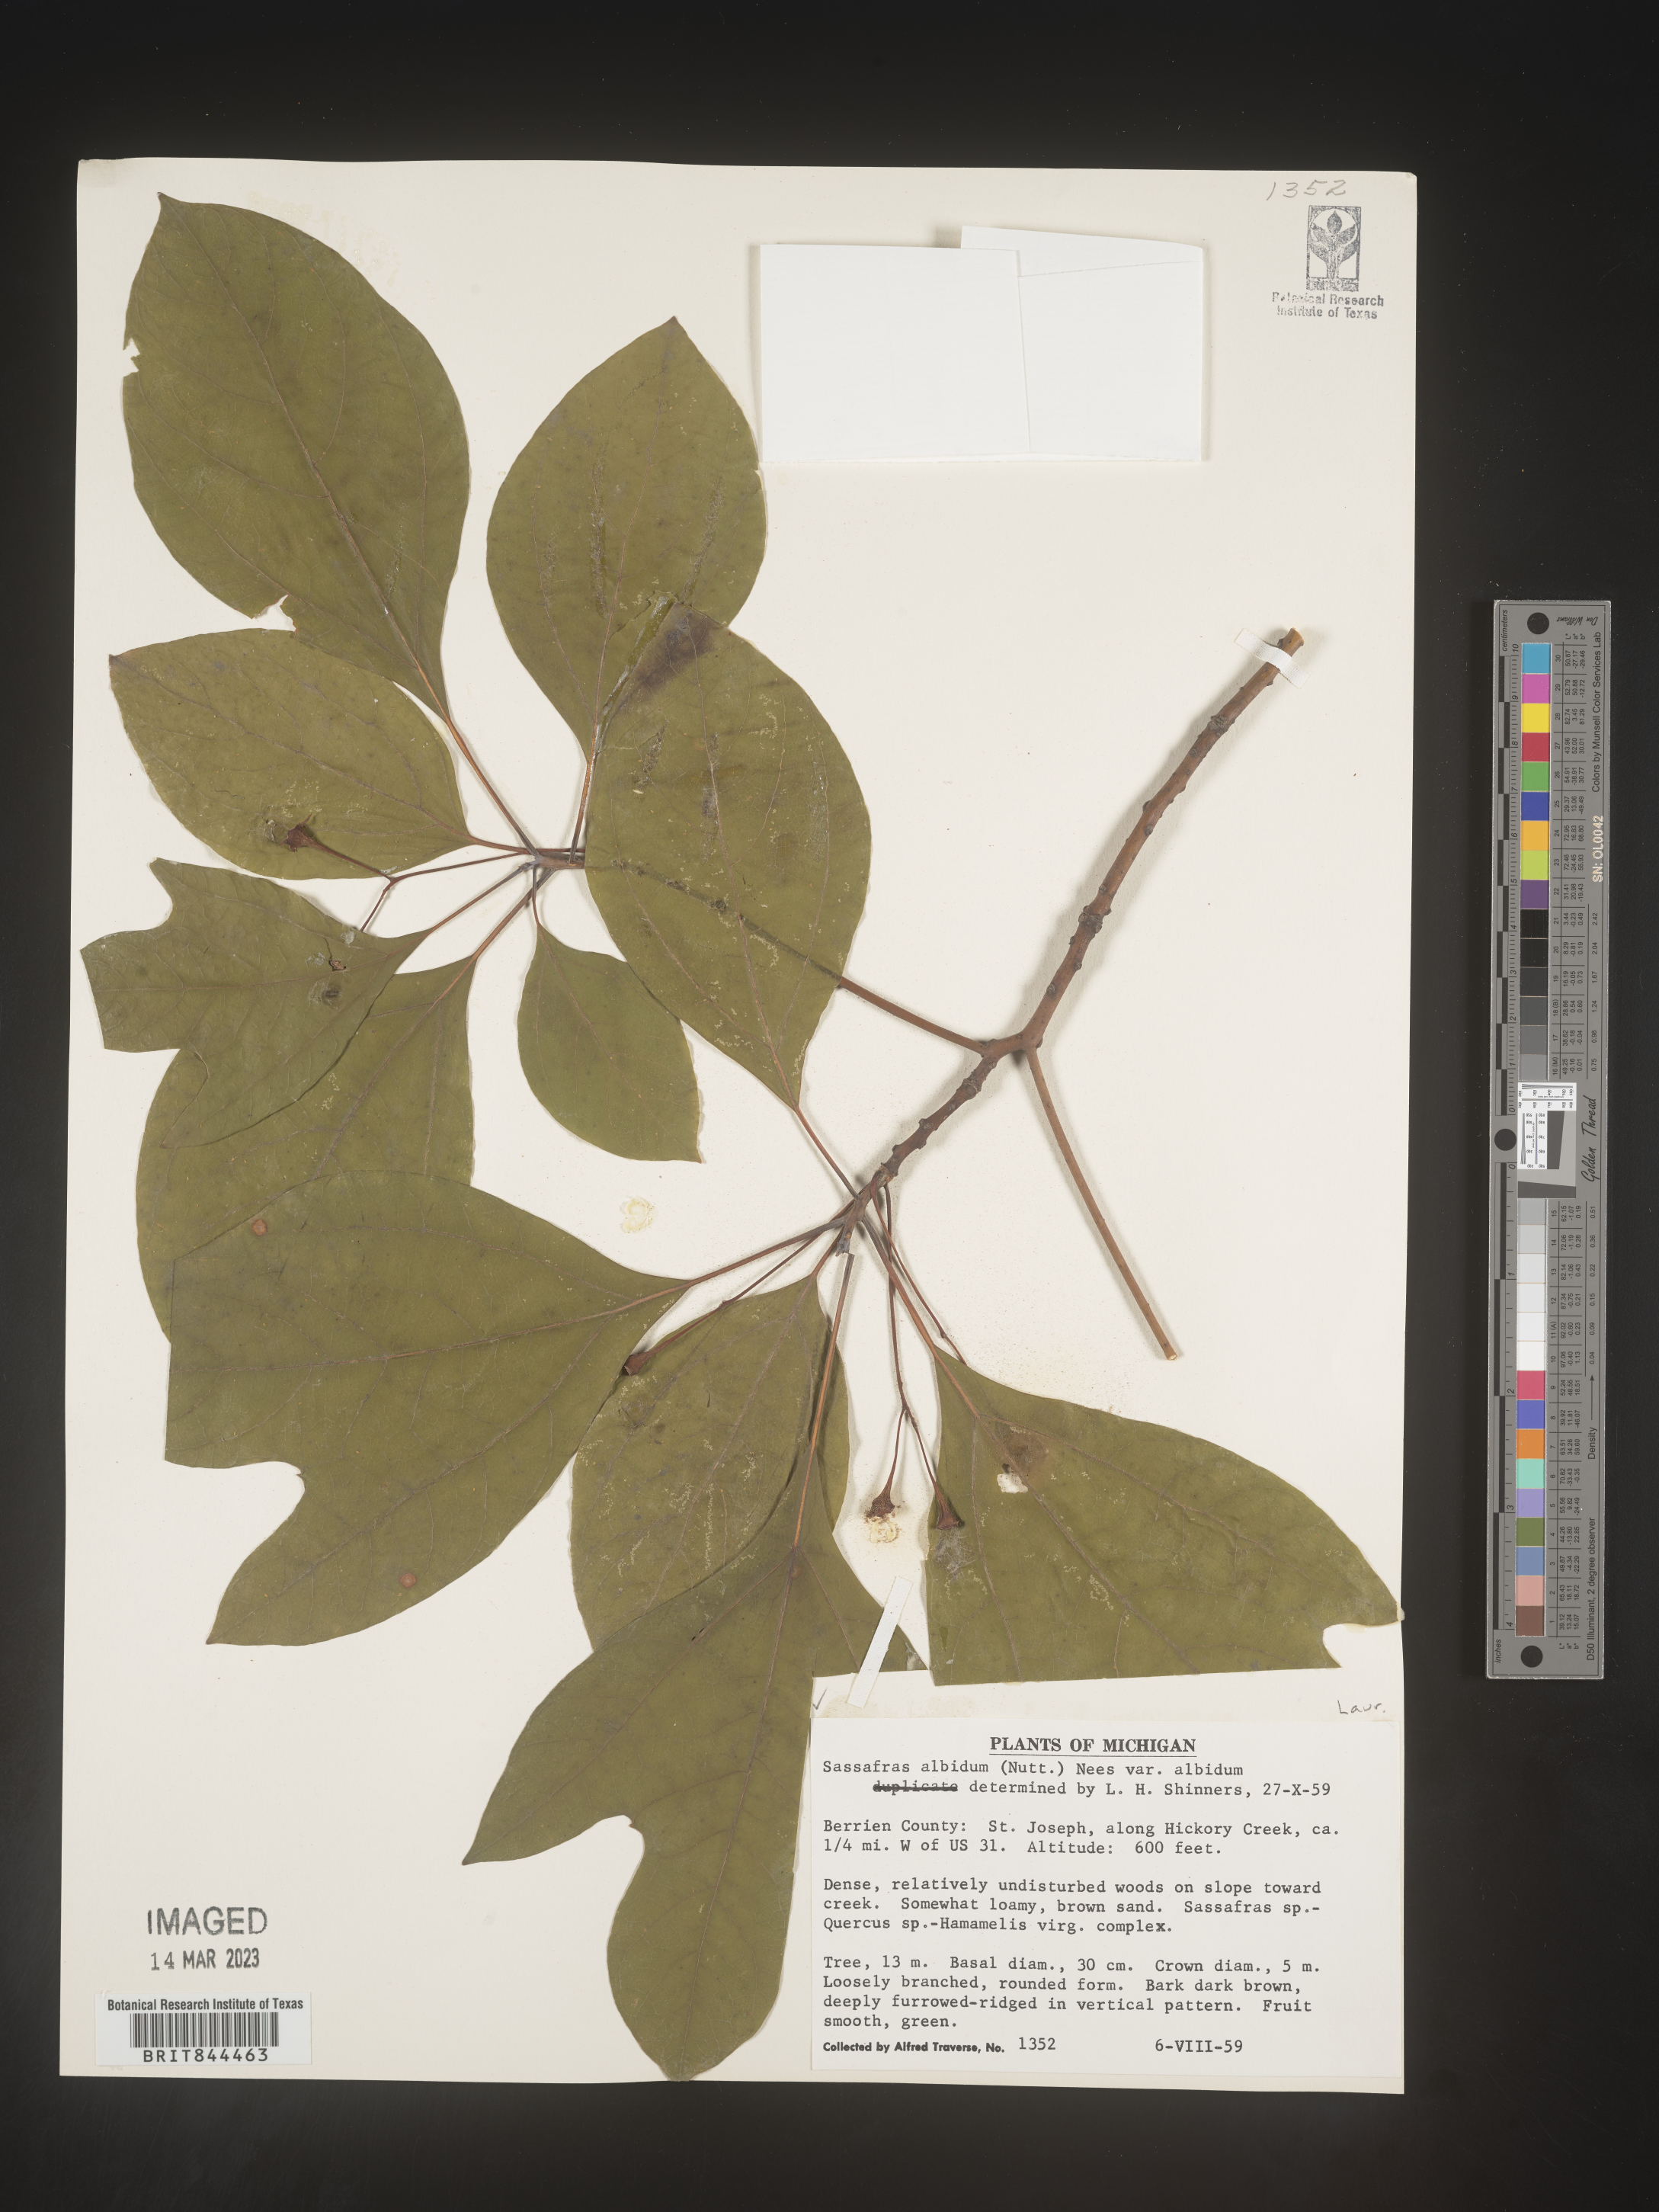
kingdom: Plantae
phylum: Tracheophyta
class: Magnoliopsida
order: Laurales
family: Lauraceae
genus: Sassafras
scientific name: Sassafras albidum
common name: Sassafras
